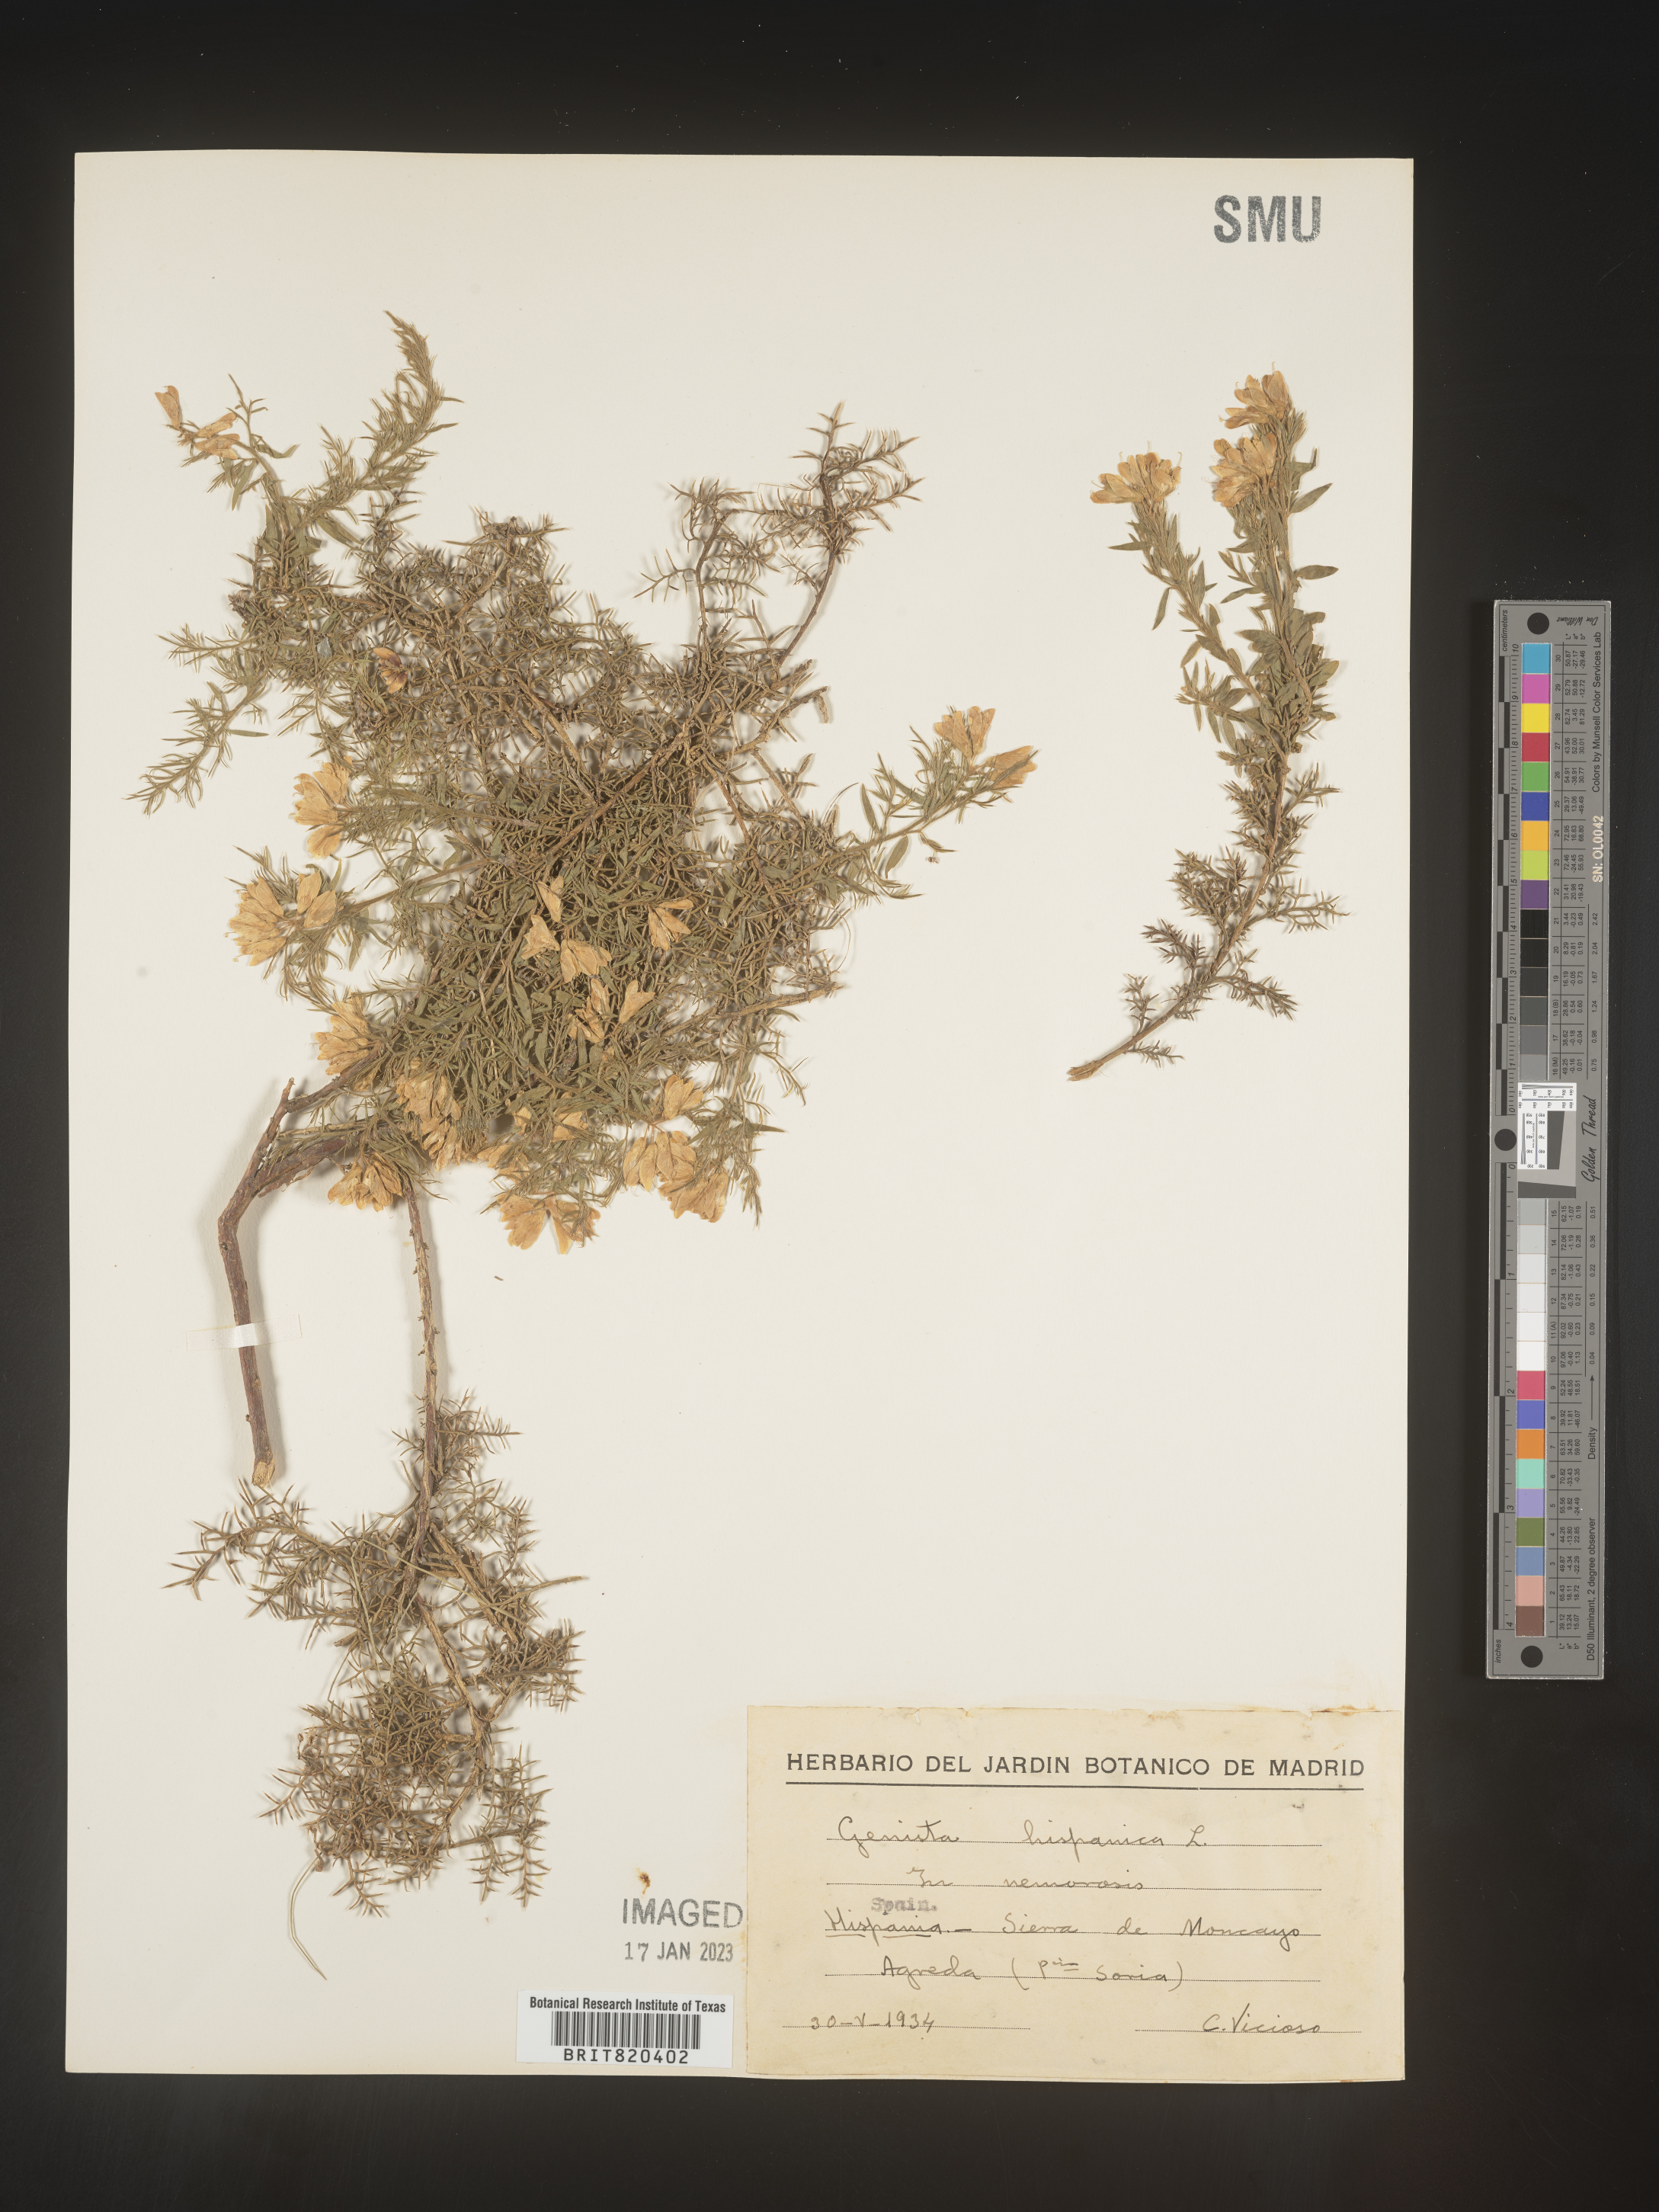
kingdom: Plantae
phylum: Tracheophyta
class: Magnoliopsida
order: Fabales
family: Fabaceae
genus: Genista
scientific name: Genista
